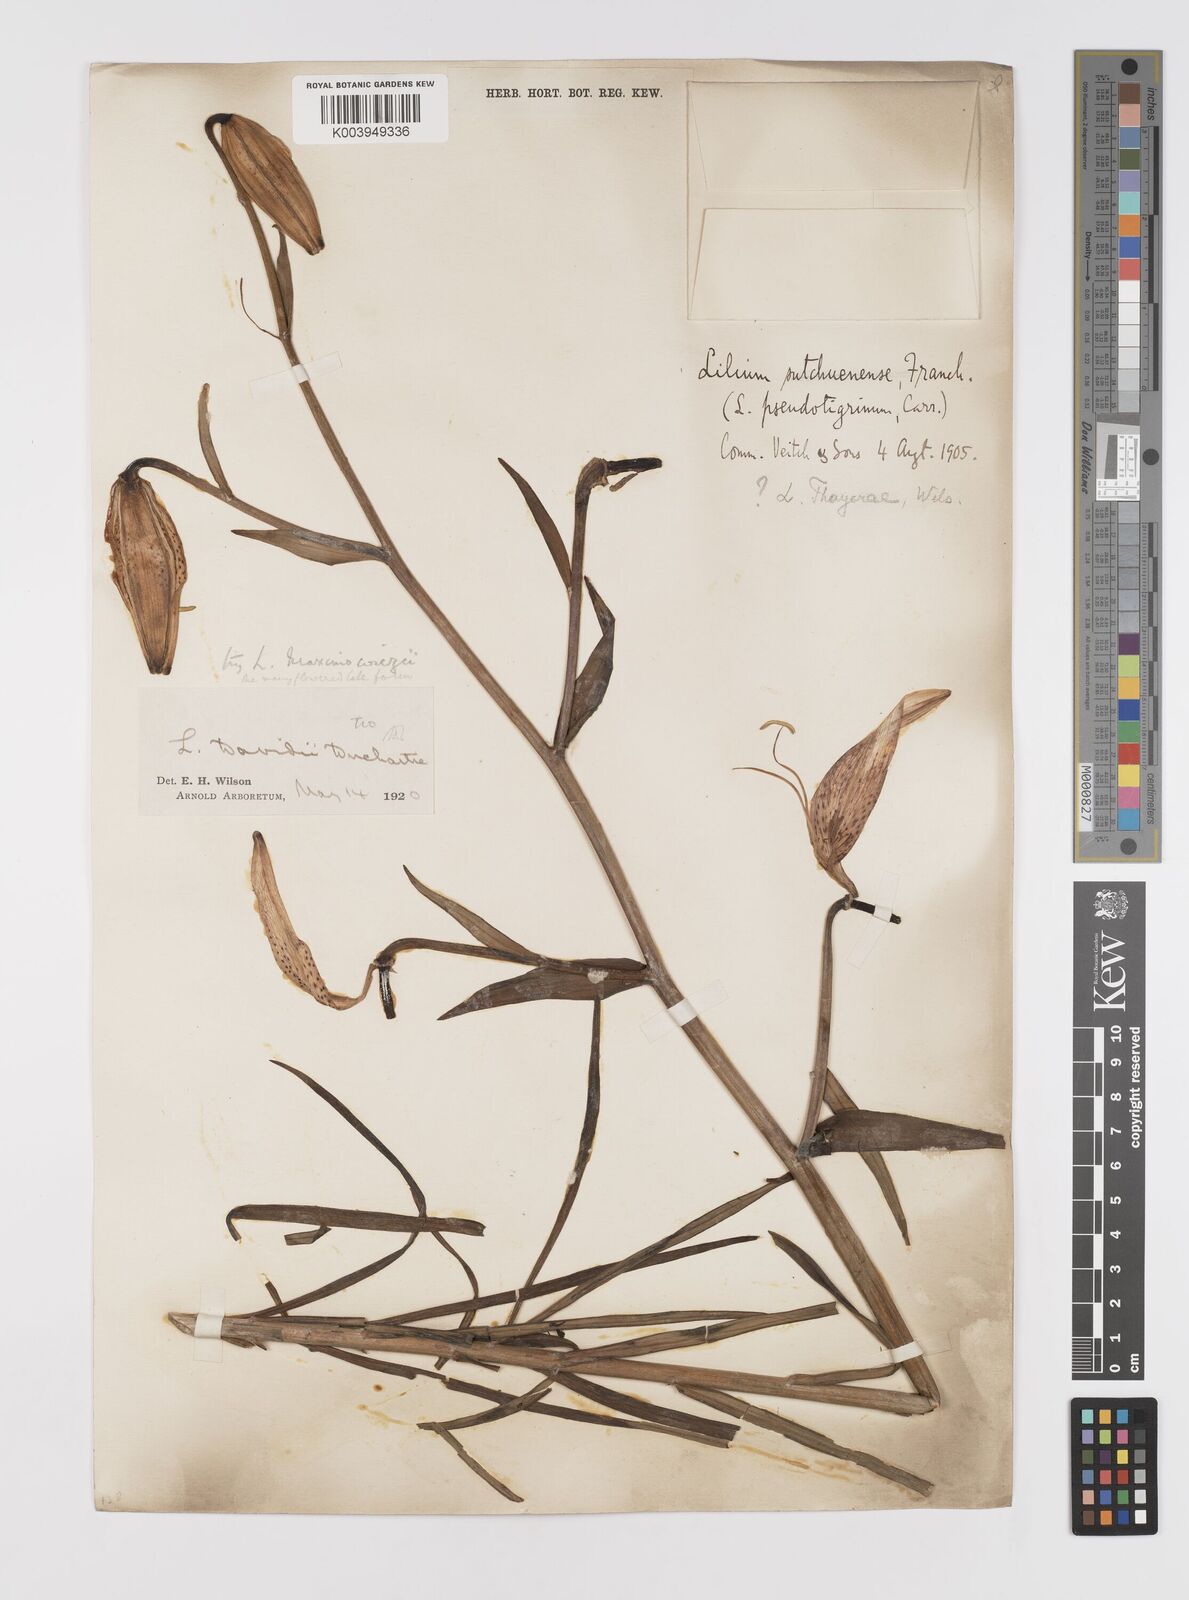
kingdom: Plantae
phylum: Tracheophyta
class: Liliopsida
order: Liliales
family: Liliaceae
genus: Lilium
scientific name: Lilium leichtlinii
